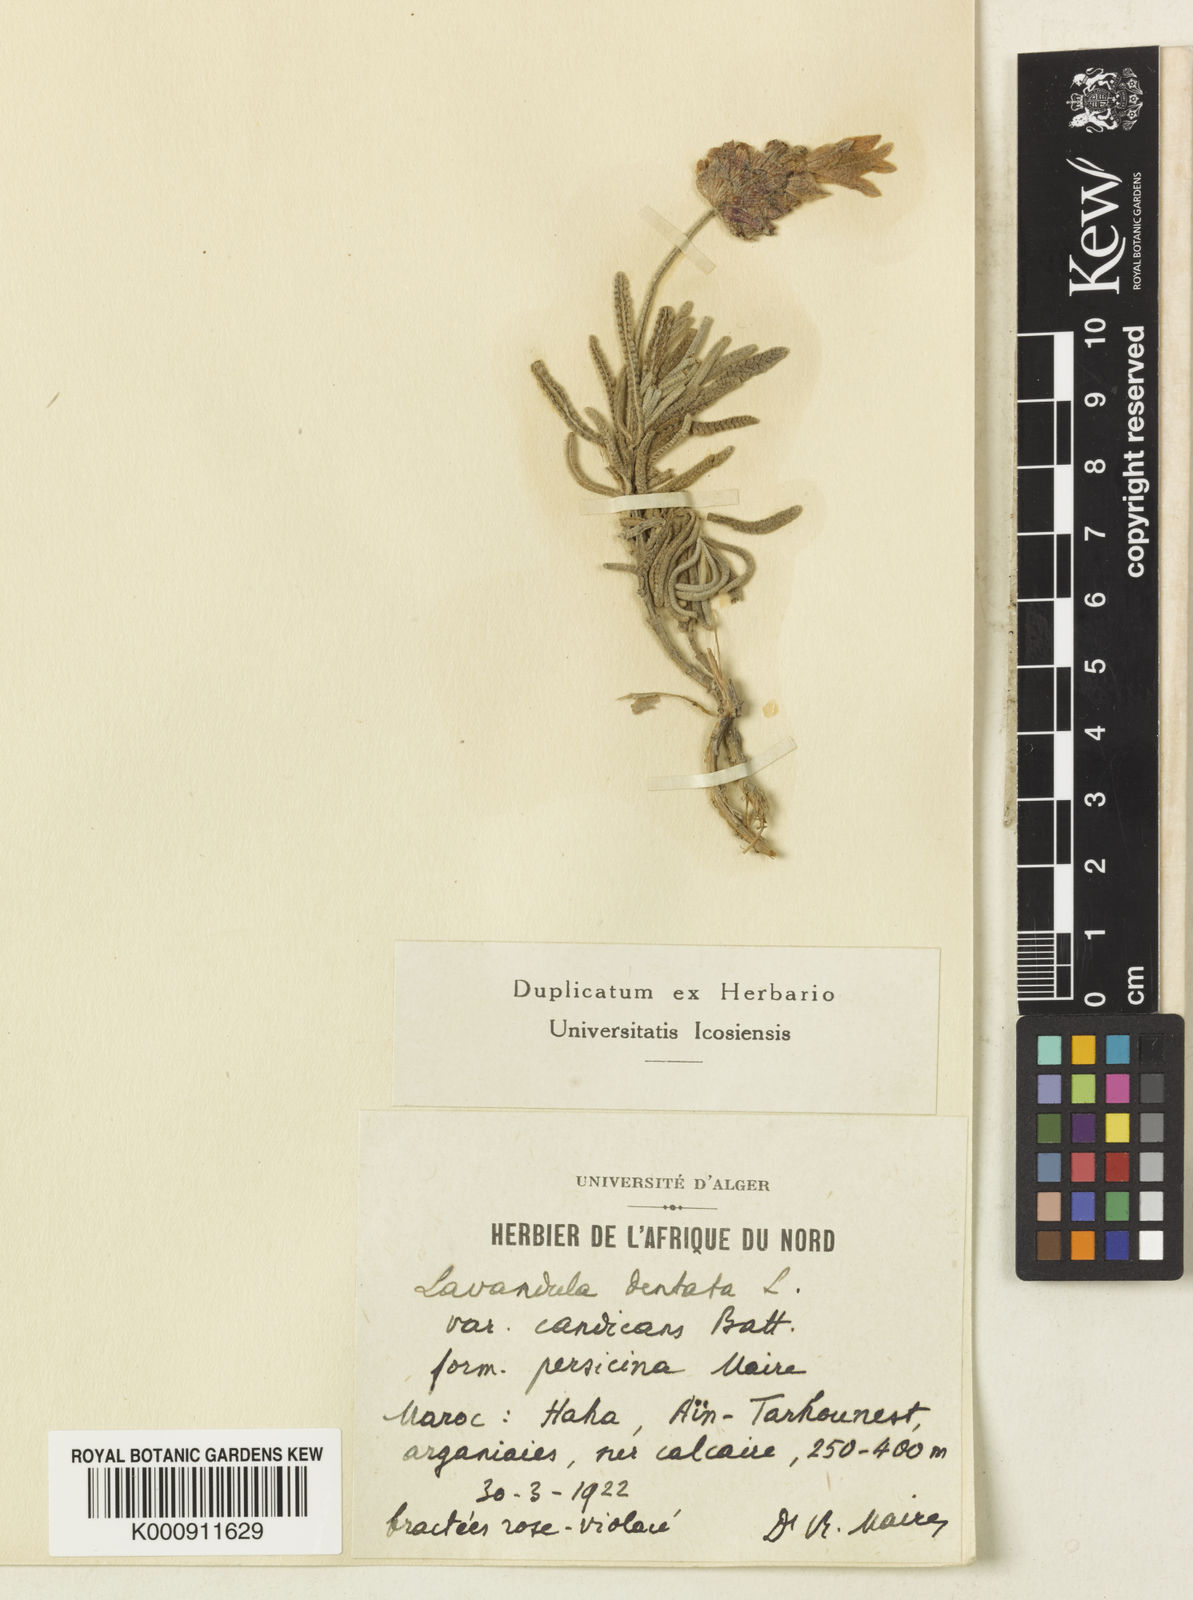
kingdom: Plantae
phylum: Tracheophyta
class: Magnoliopsida
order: Lamiales
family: Lamiaceae
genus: Lavandula
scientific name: Lavandula dentata
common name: French lavender
